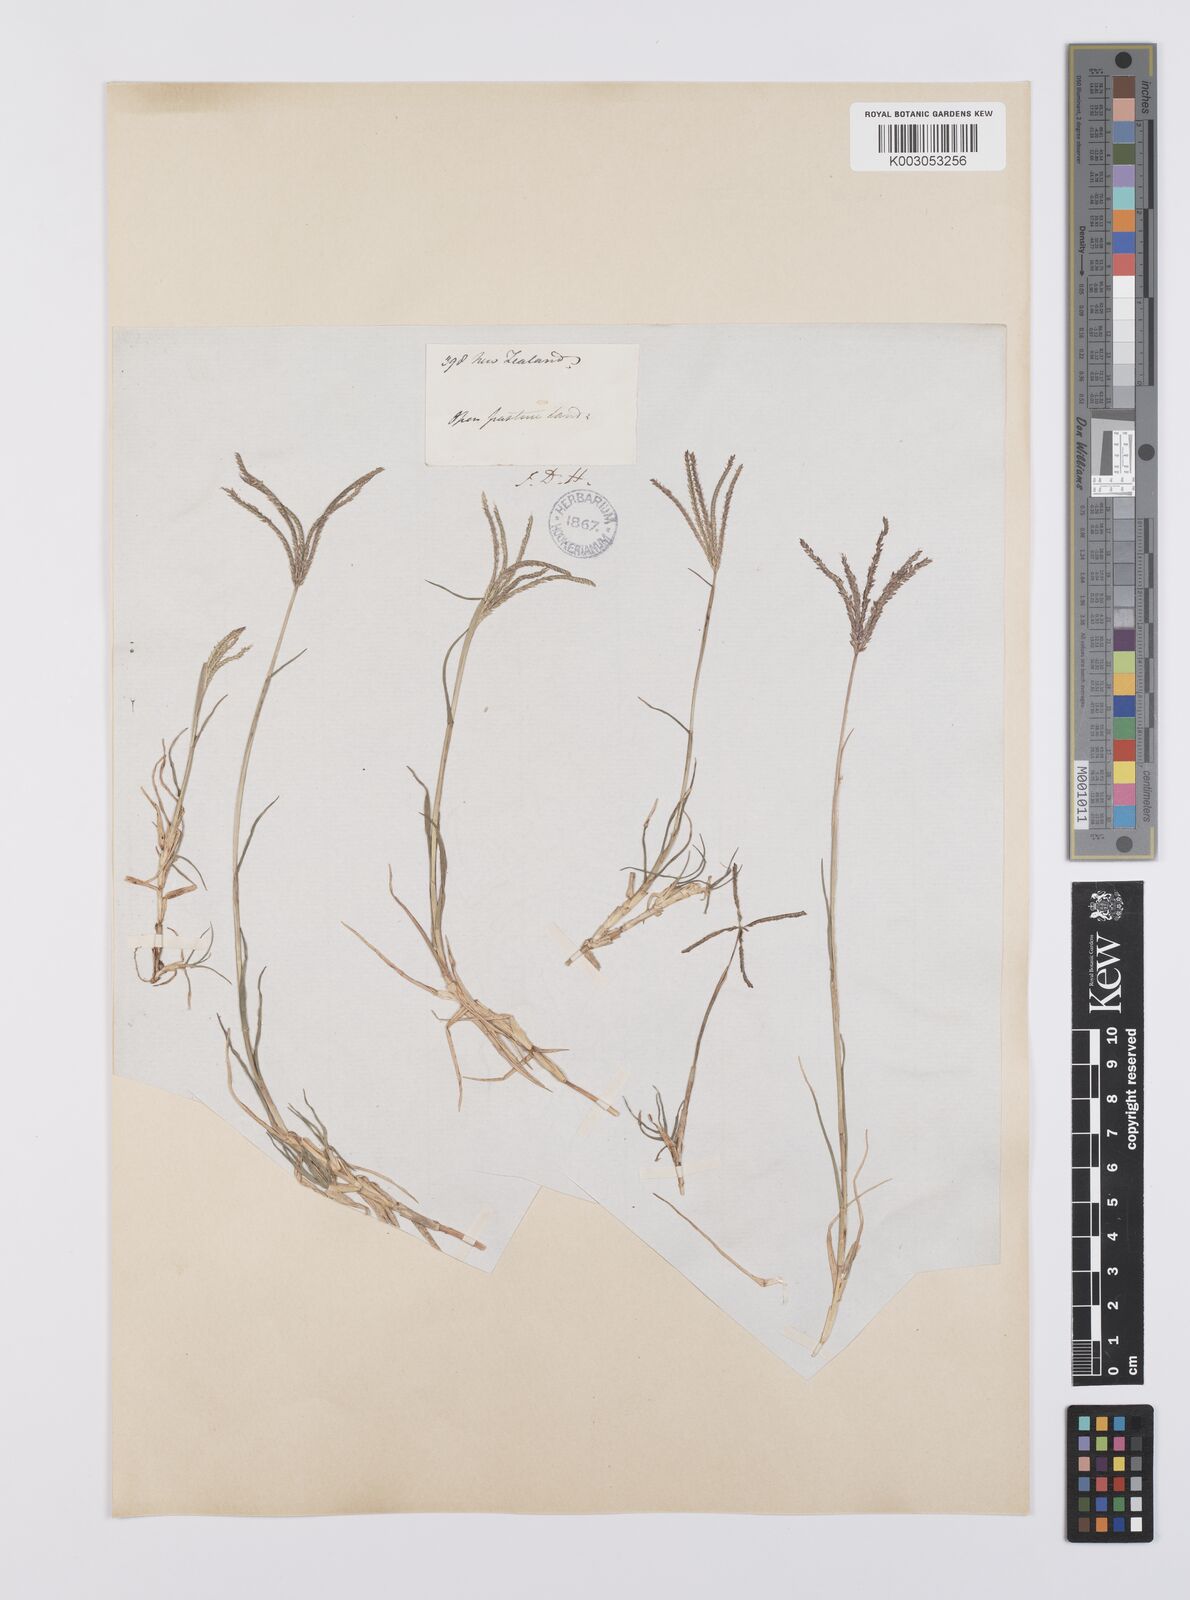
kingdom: Plantae
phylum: Tracheophyta
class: Liliopsida
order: Poales
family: Poaceae
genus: Cynodon
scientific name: Cynodon dactylon
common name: Bermuda grass
